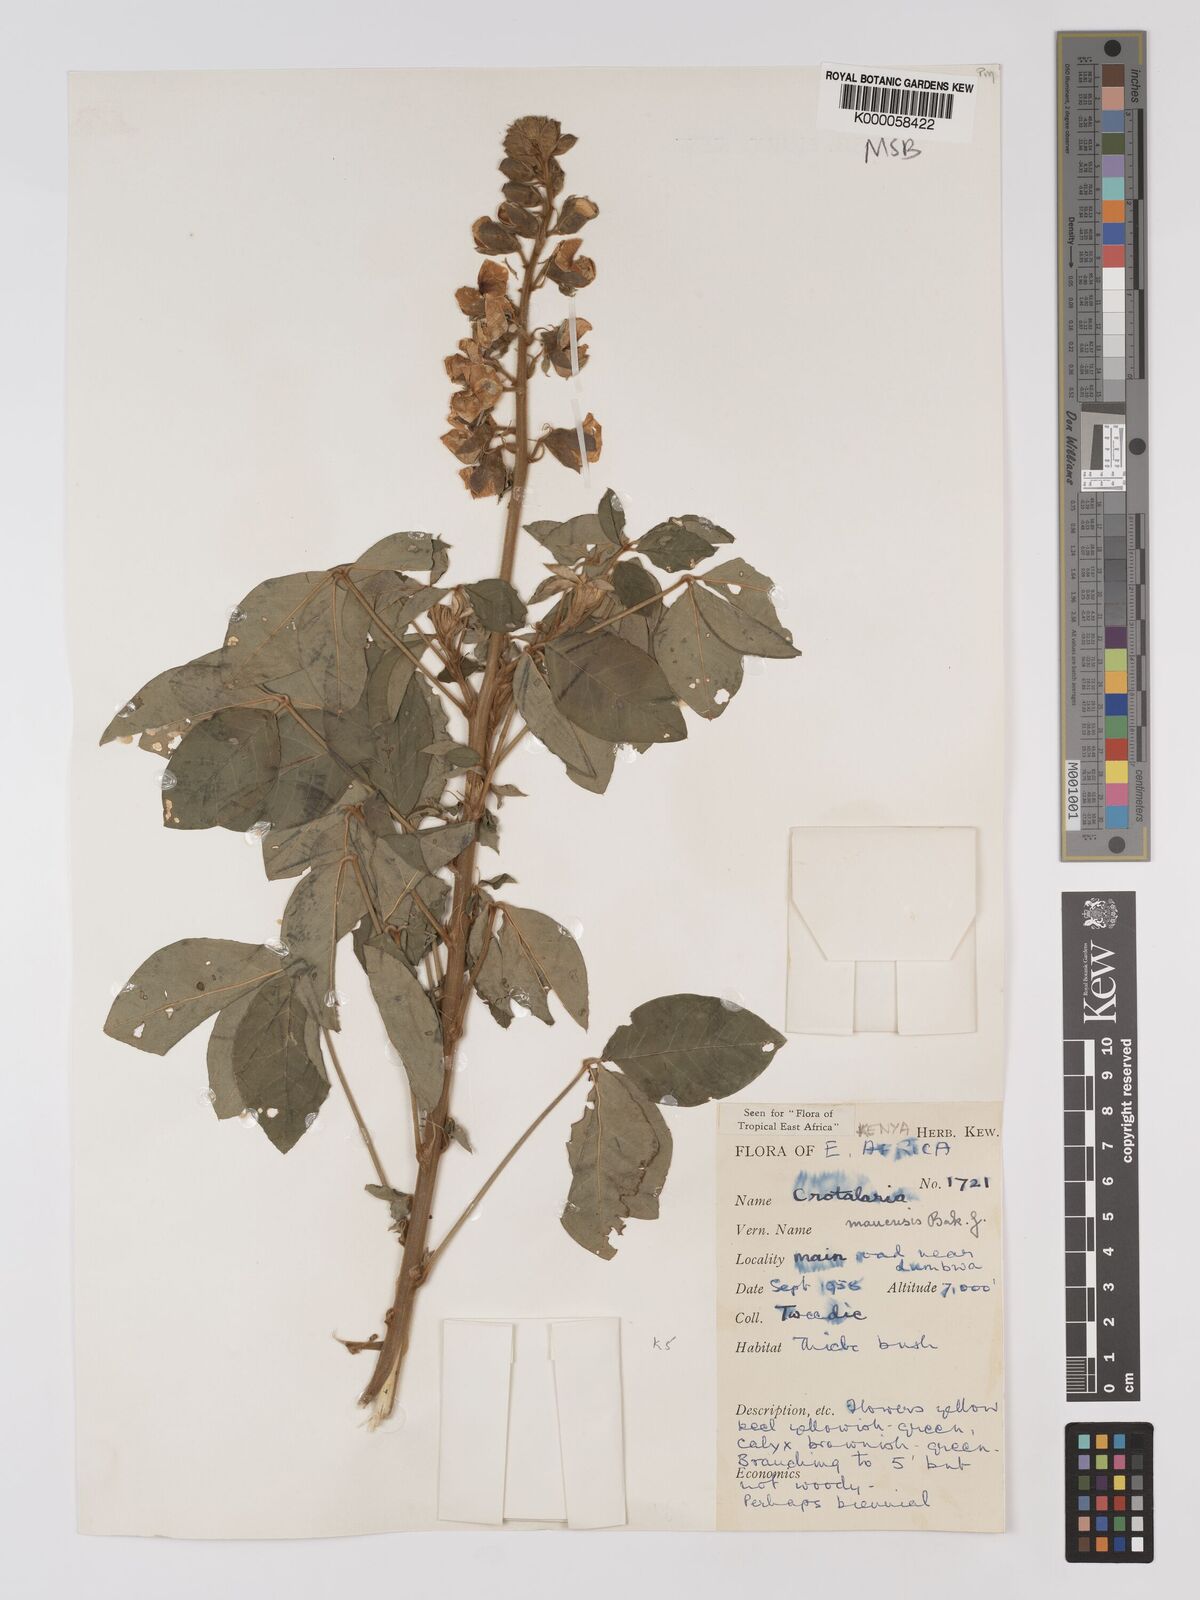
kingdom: Plantae
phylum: Tracheophyta
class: Magnoliopsida
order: Fabales
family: Fabaceae
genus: Crotalaria
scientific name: Crotalaria mauensis
